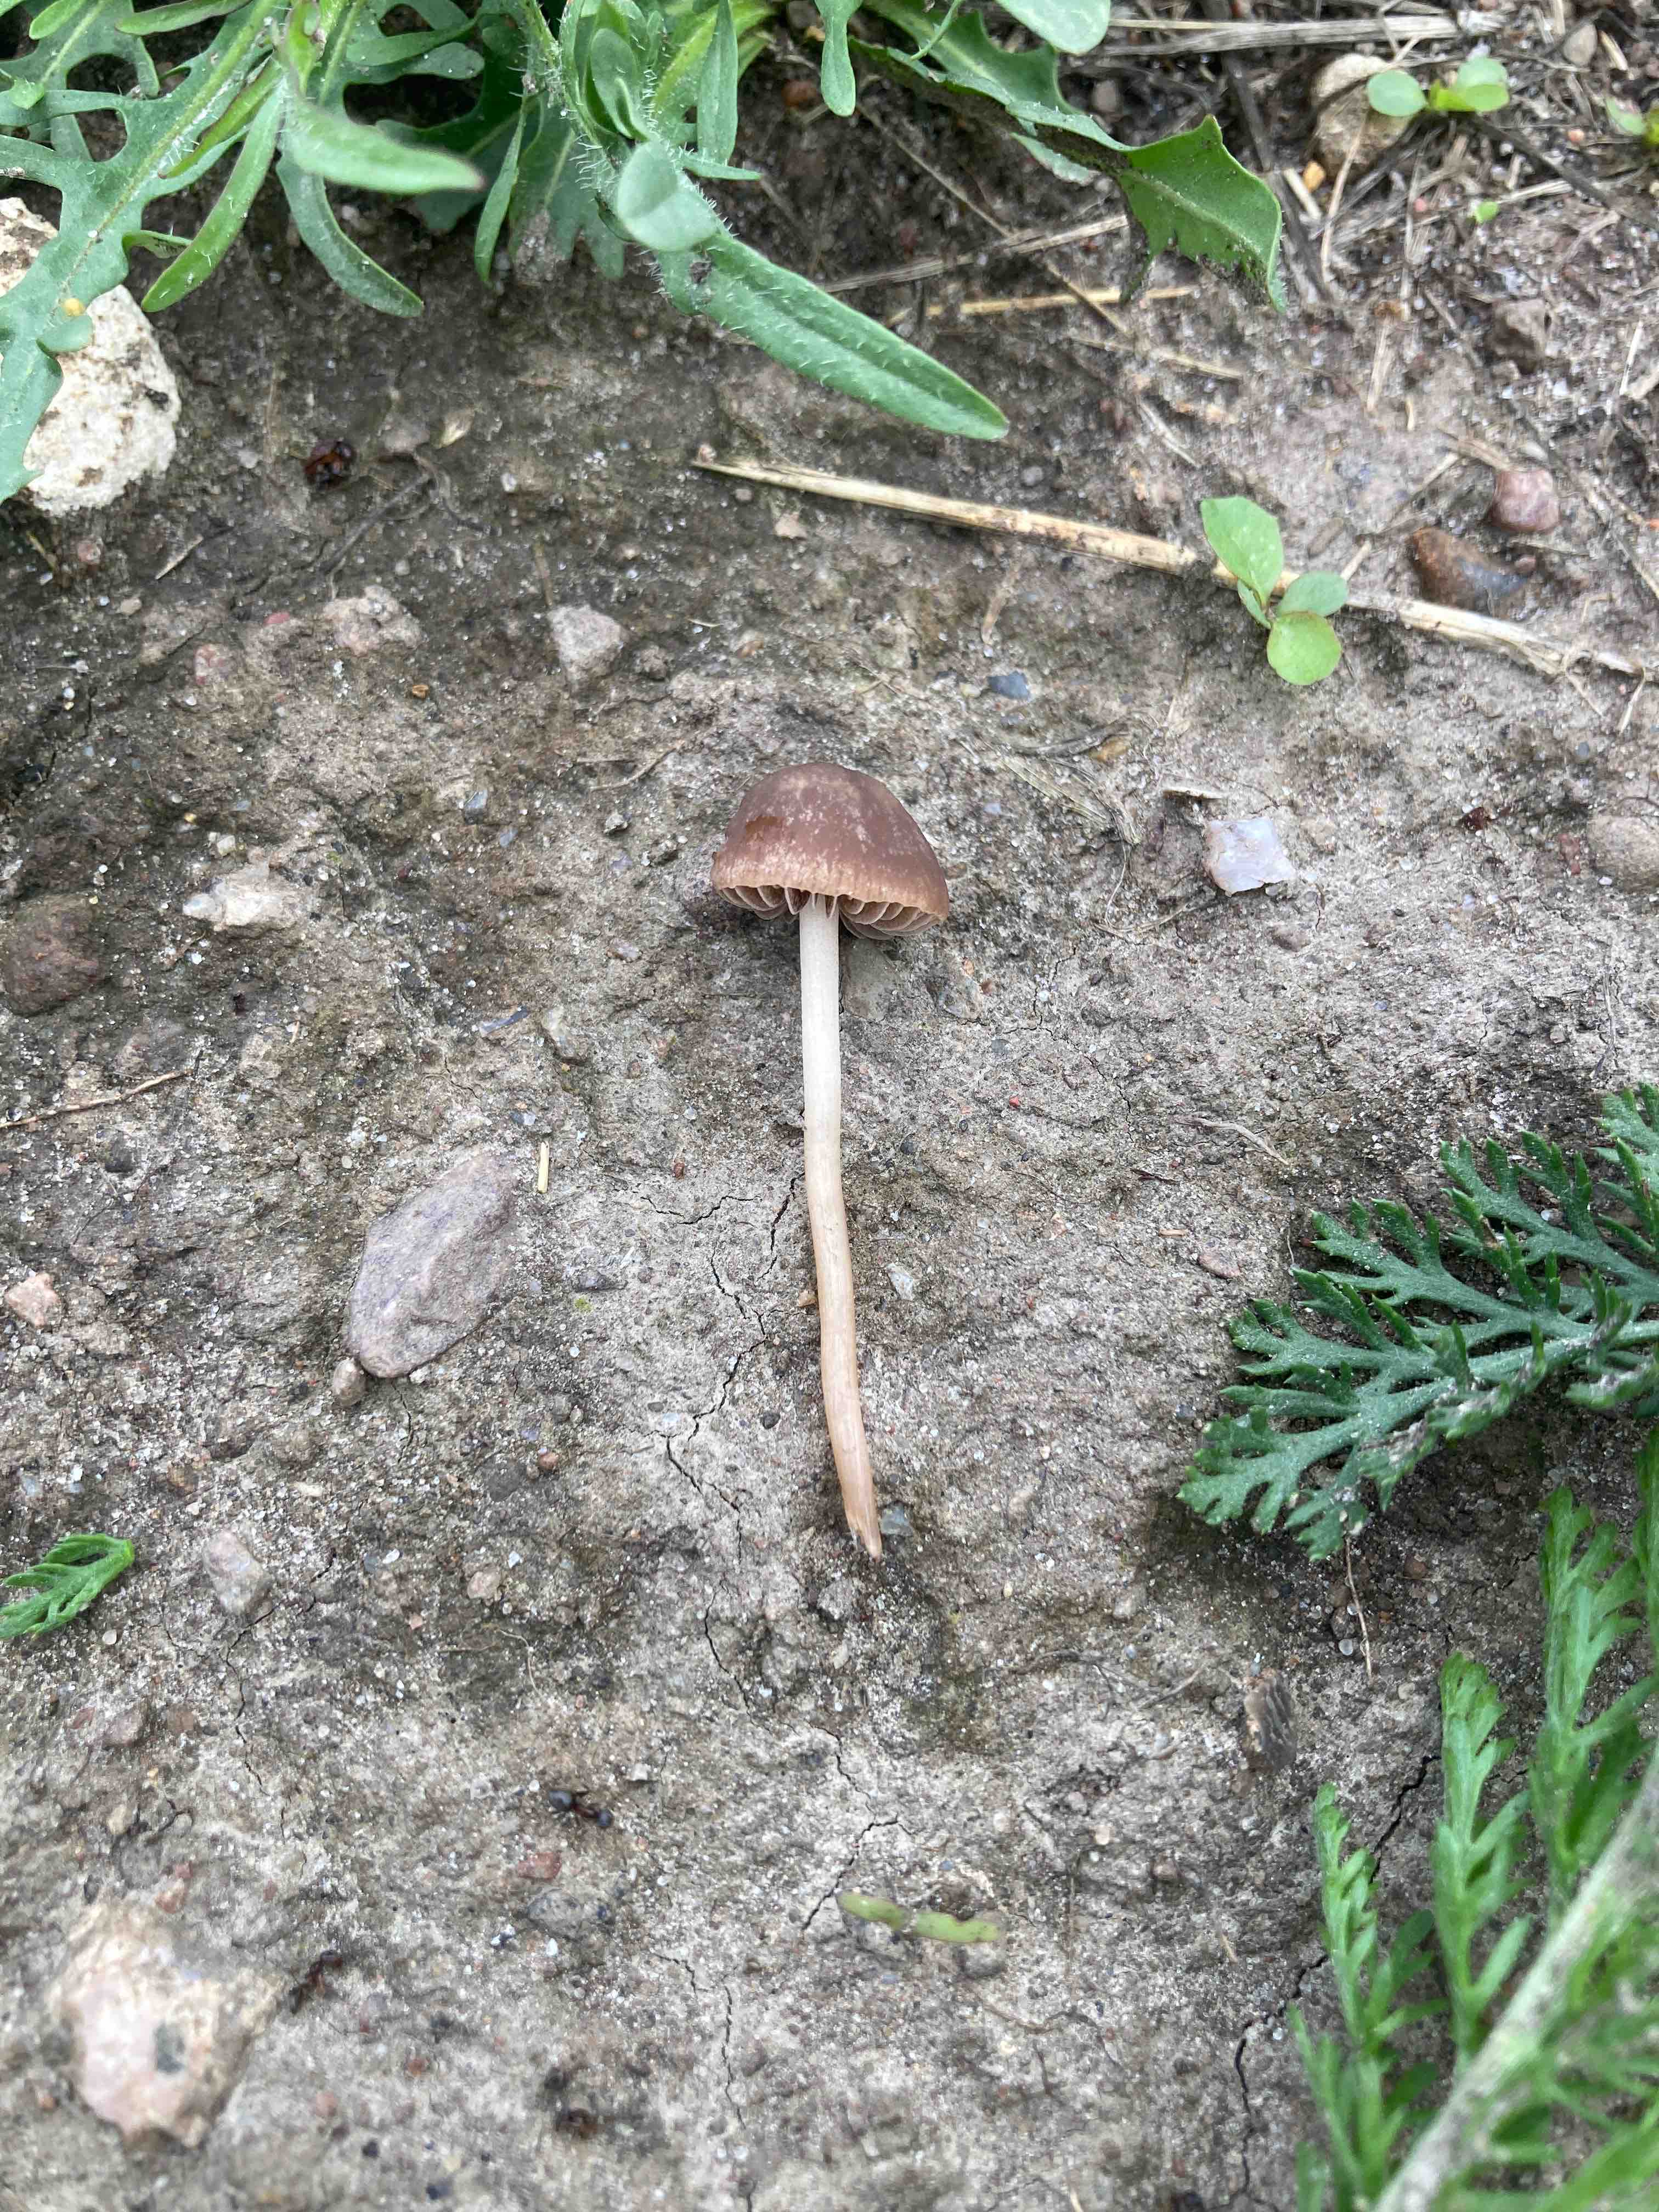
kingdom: Fungi
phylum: Basidiomycota
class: Agaricomycetes
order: Agaricales
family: Bolbitiaceae
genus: Panaeolina
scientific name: Panaeolina foenisecii
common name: høslætsvamp
